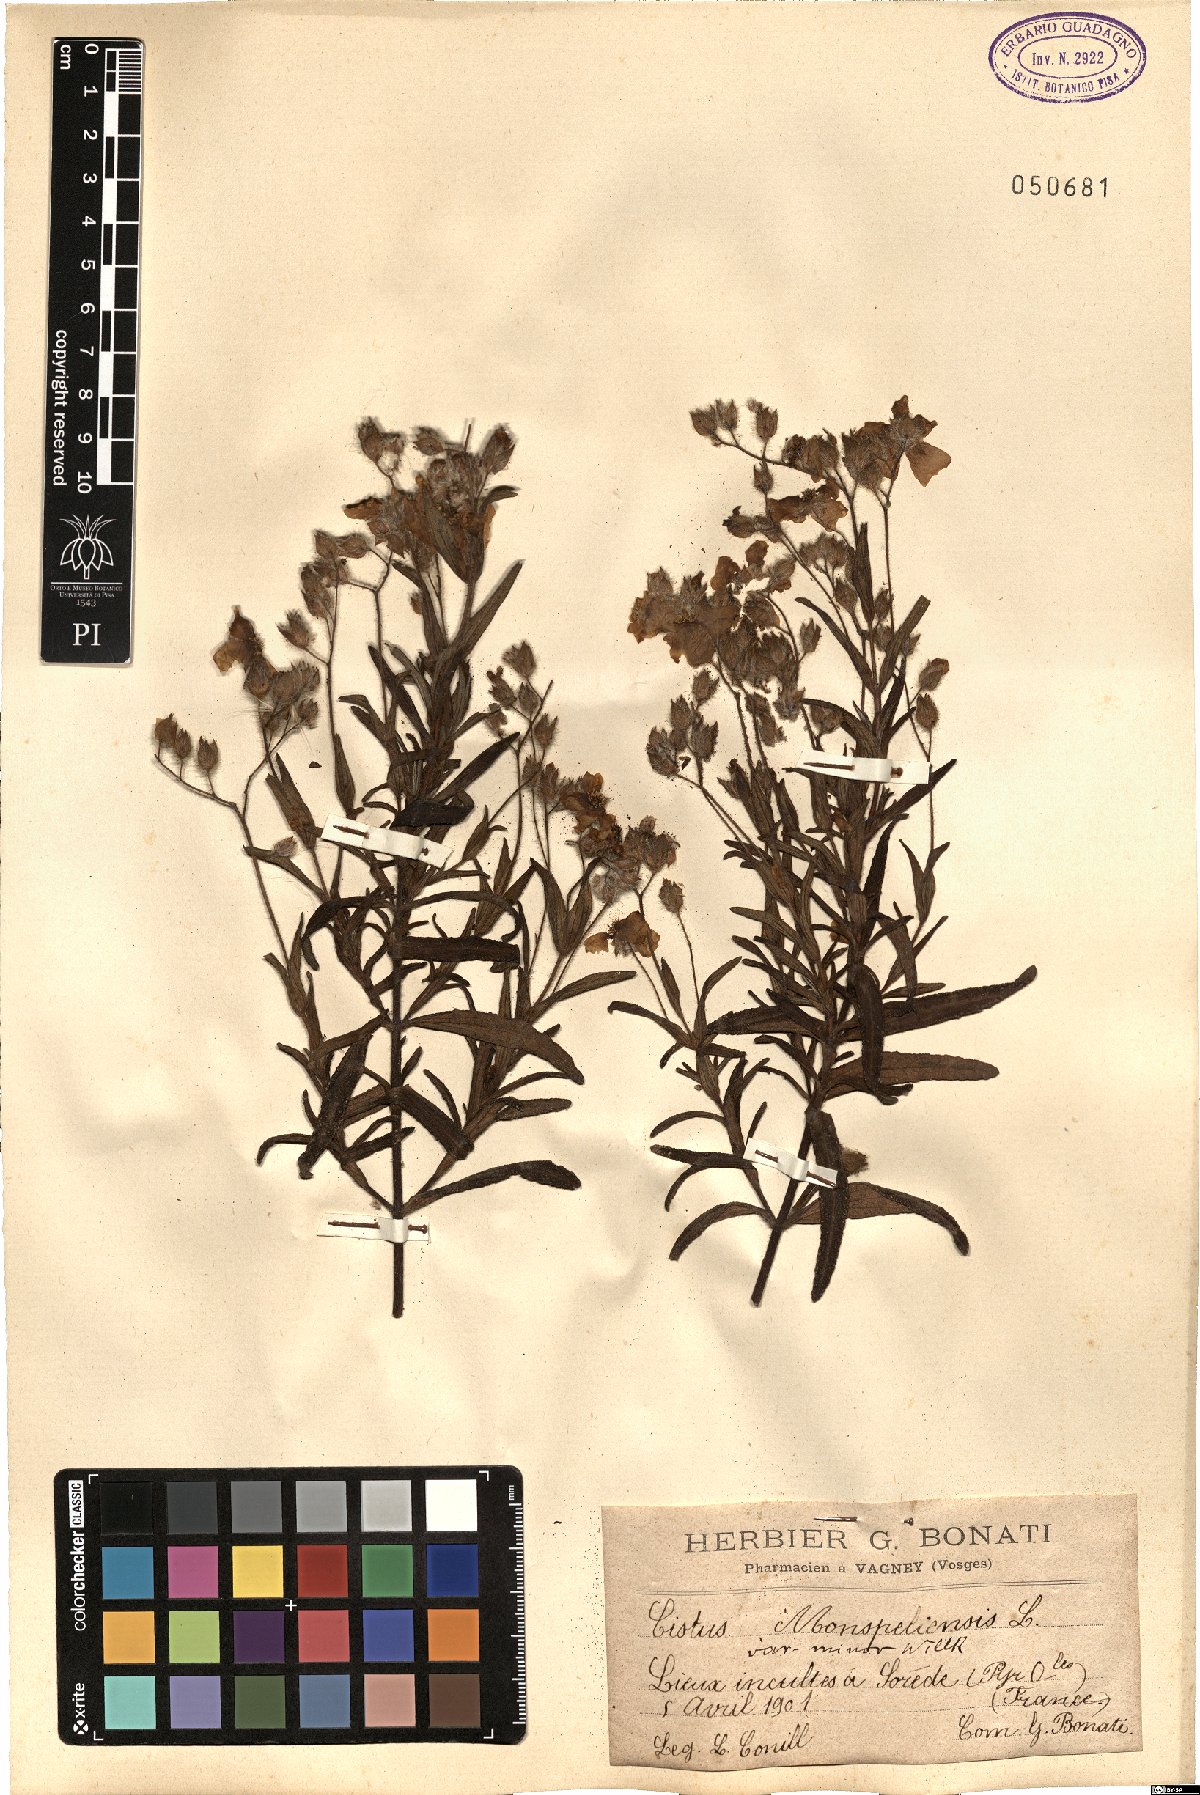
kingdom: Plantae
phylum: Tracheophyta
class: Magnoliopsida
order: Malvales
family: Cistaceae
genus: Cistus
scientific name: Cistus monspeliensis
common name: Montpelier cistus
